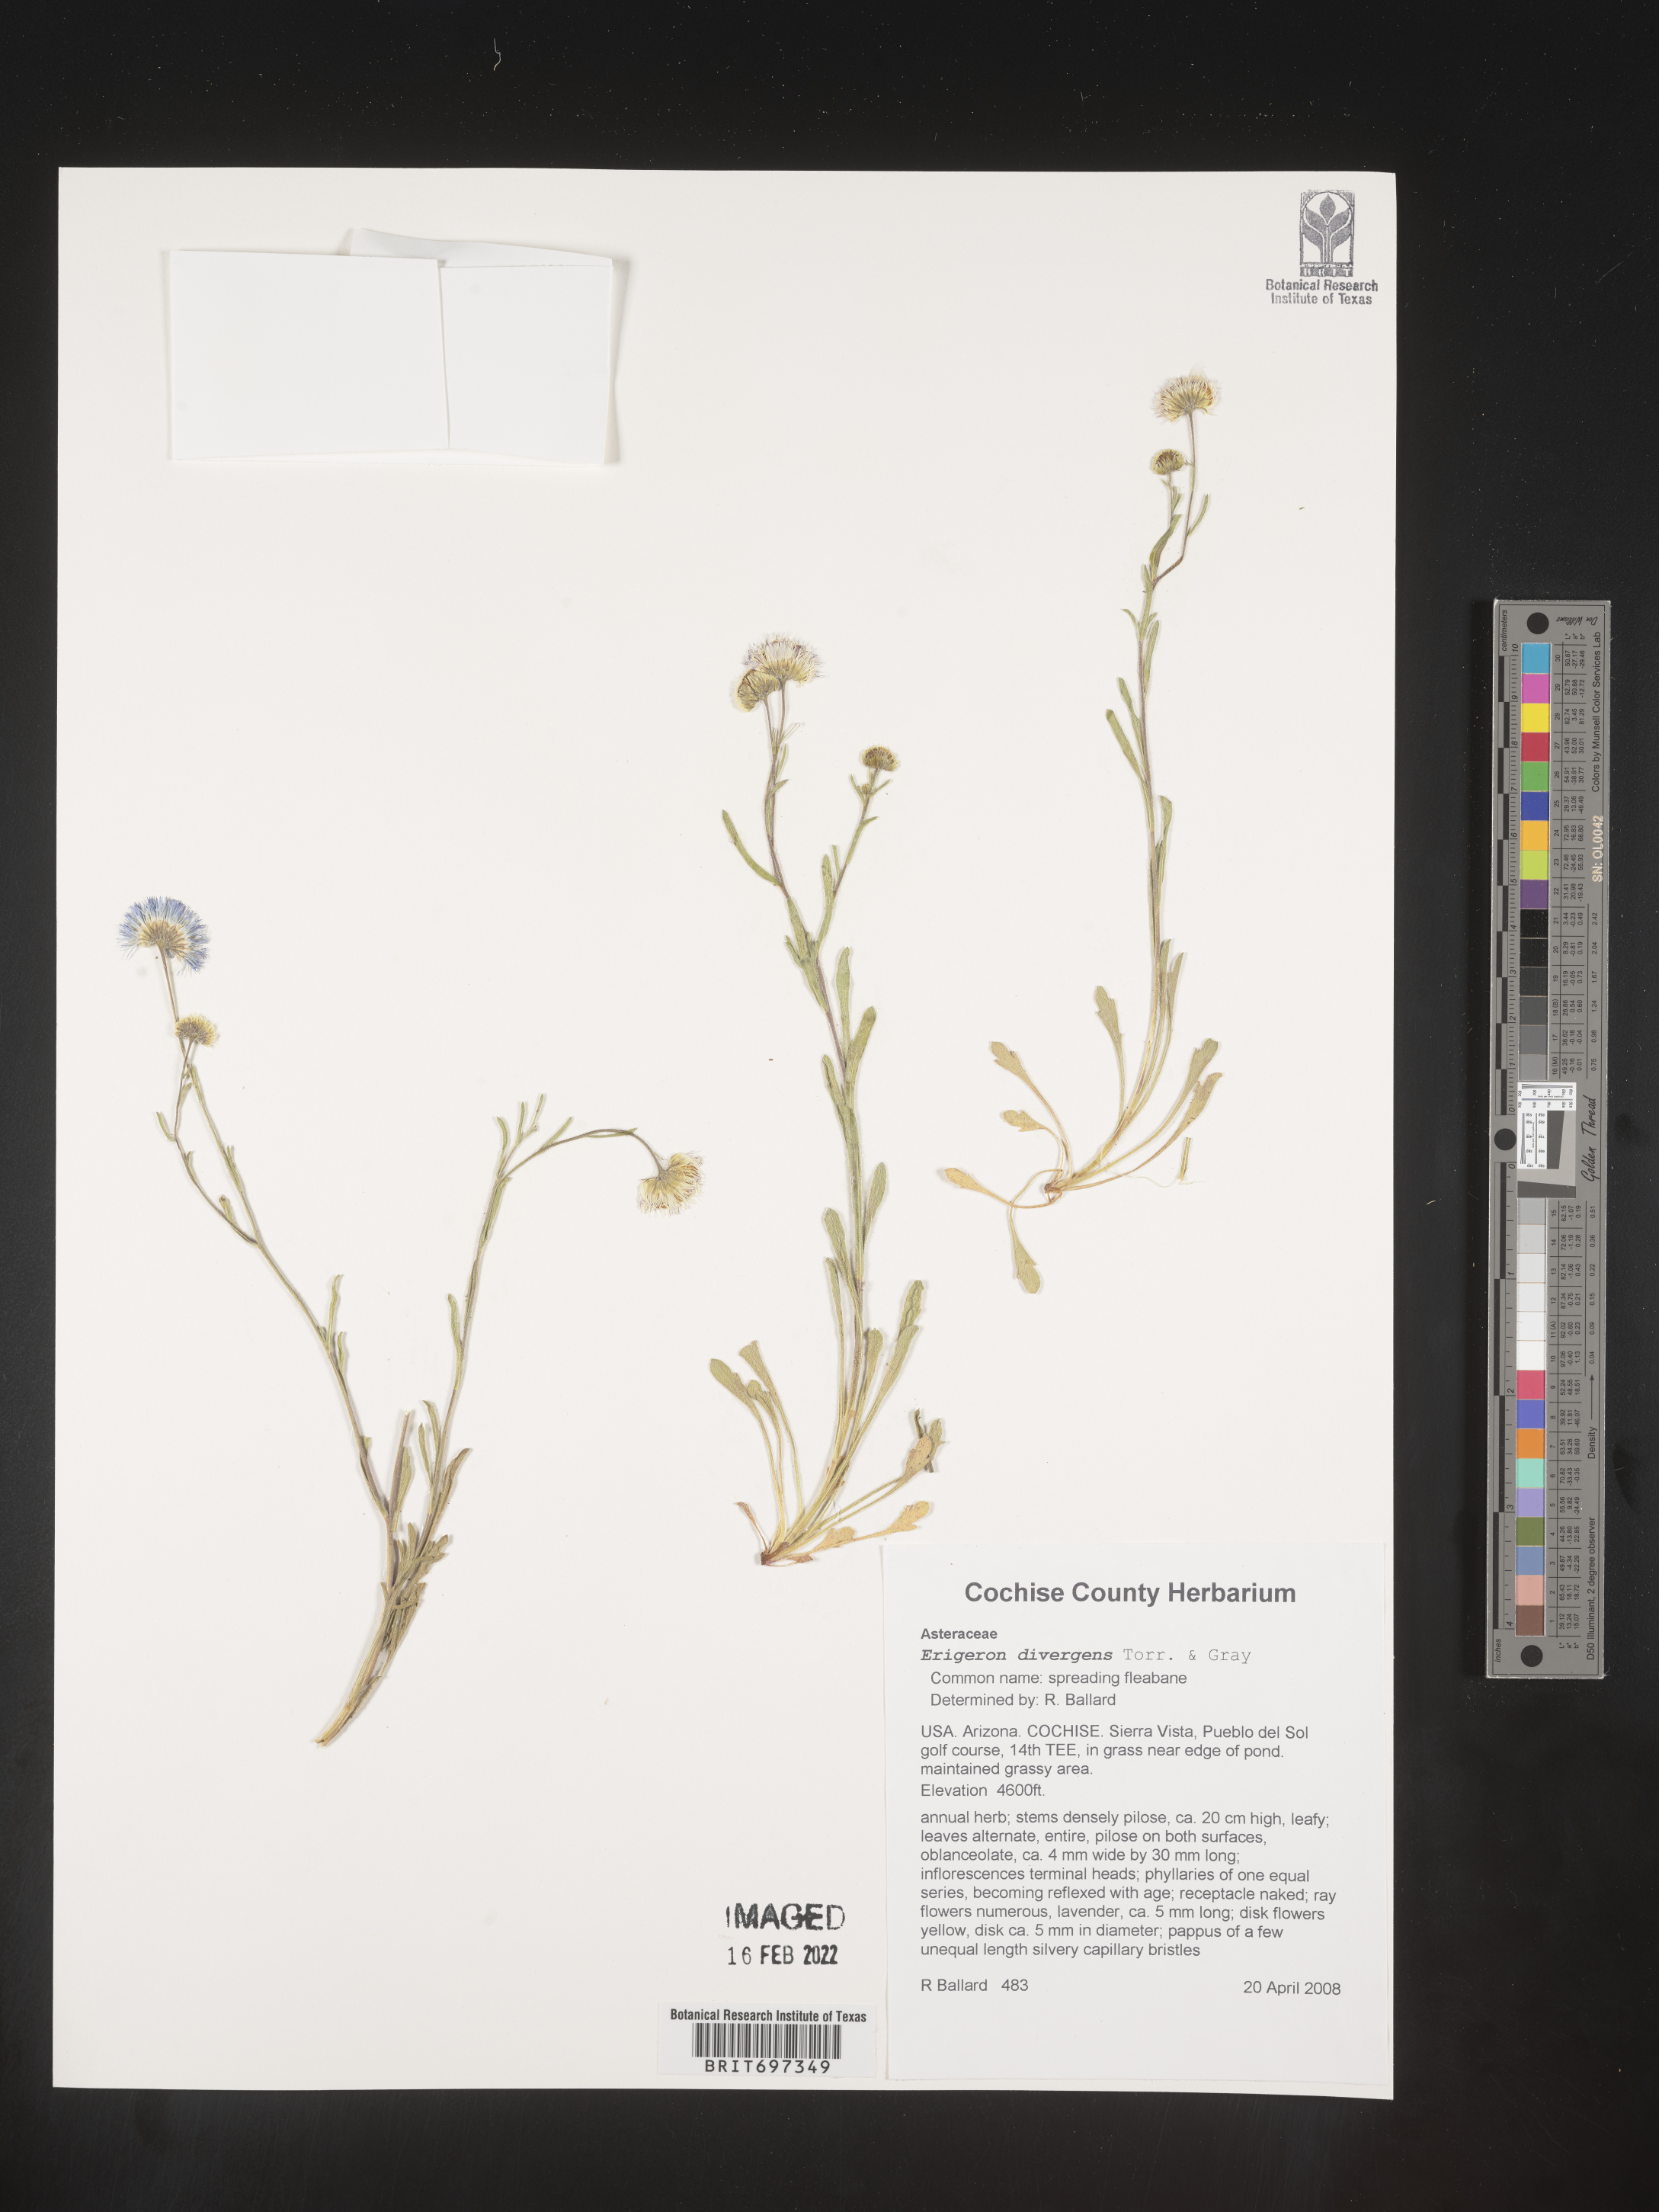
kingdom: Plantae
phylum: Tracheophyta
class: Magnoliopsida
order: Asterales
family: Asteraceae
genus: Erigeron
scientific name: Erigeron divergens
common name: Diffuse fleabane
